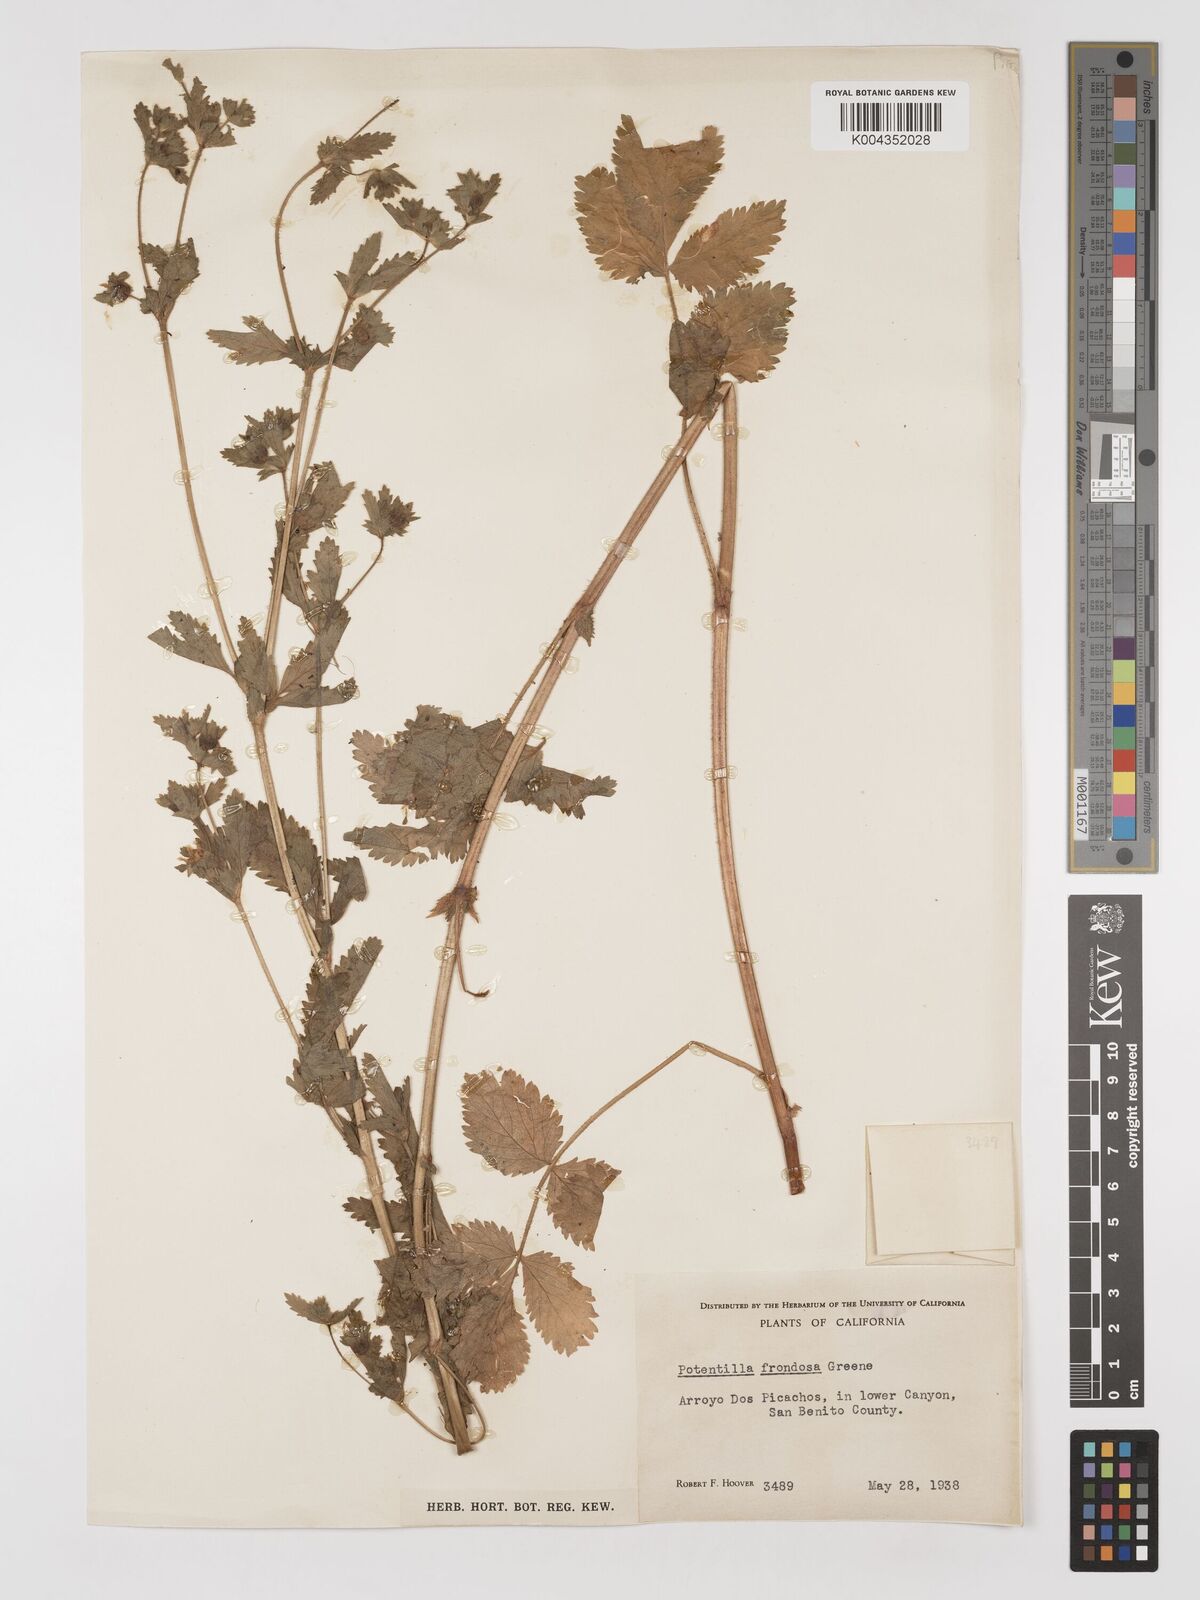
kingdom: Plantae
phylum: Tracheophyta
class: Magnoliopsida
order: Rosales
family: Rosaceae
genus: Potentilla
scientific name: Potentilla californica
